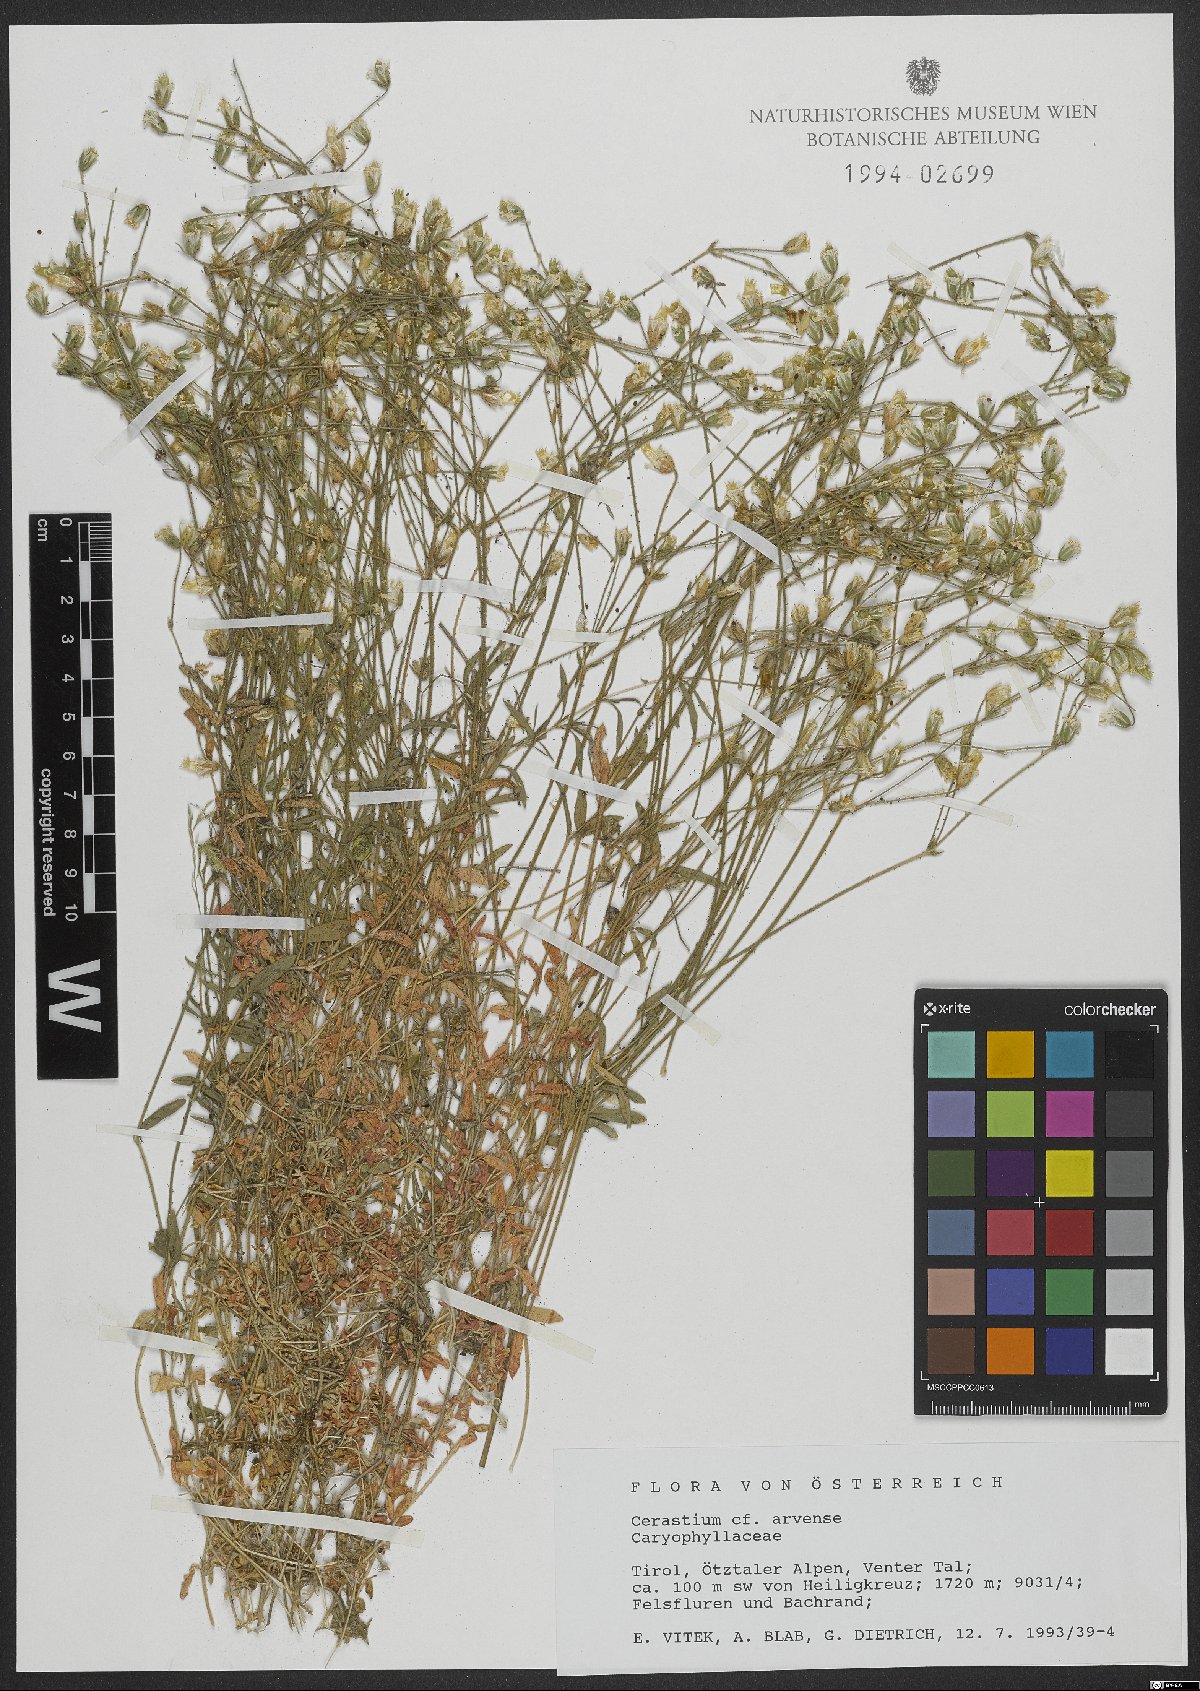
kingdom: Plantae
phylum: Tracheophyta
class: Magnoliopsida
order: Caryophyllales
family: Caryophyllaceae
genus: Cerastium
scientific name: Cerastium arvense
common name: Field mouse-ear
